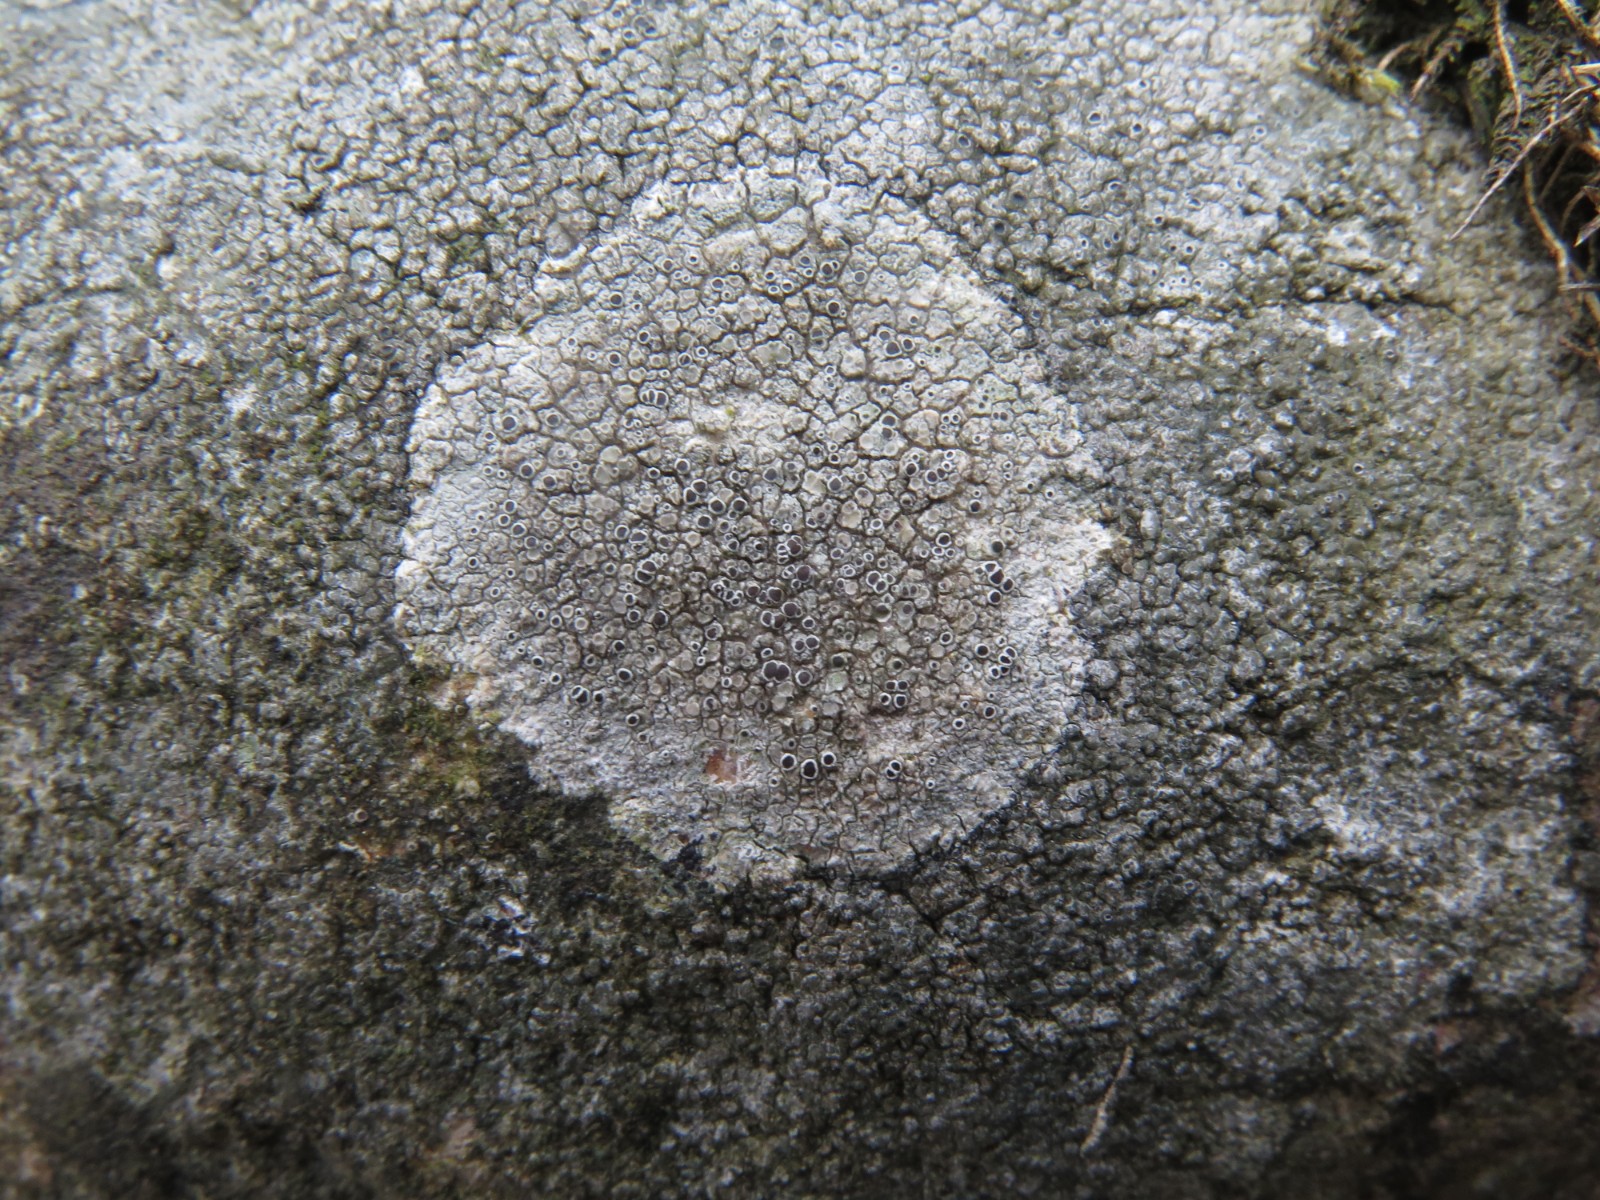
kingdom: Fungi
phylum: Ascomycota
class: Lecanoromycetes
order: Lecanorales
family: Tephromelataceae
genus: Tephromela
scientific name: Tephromela atra
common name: sortfrugtet kantskivelav
